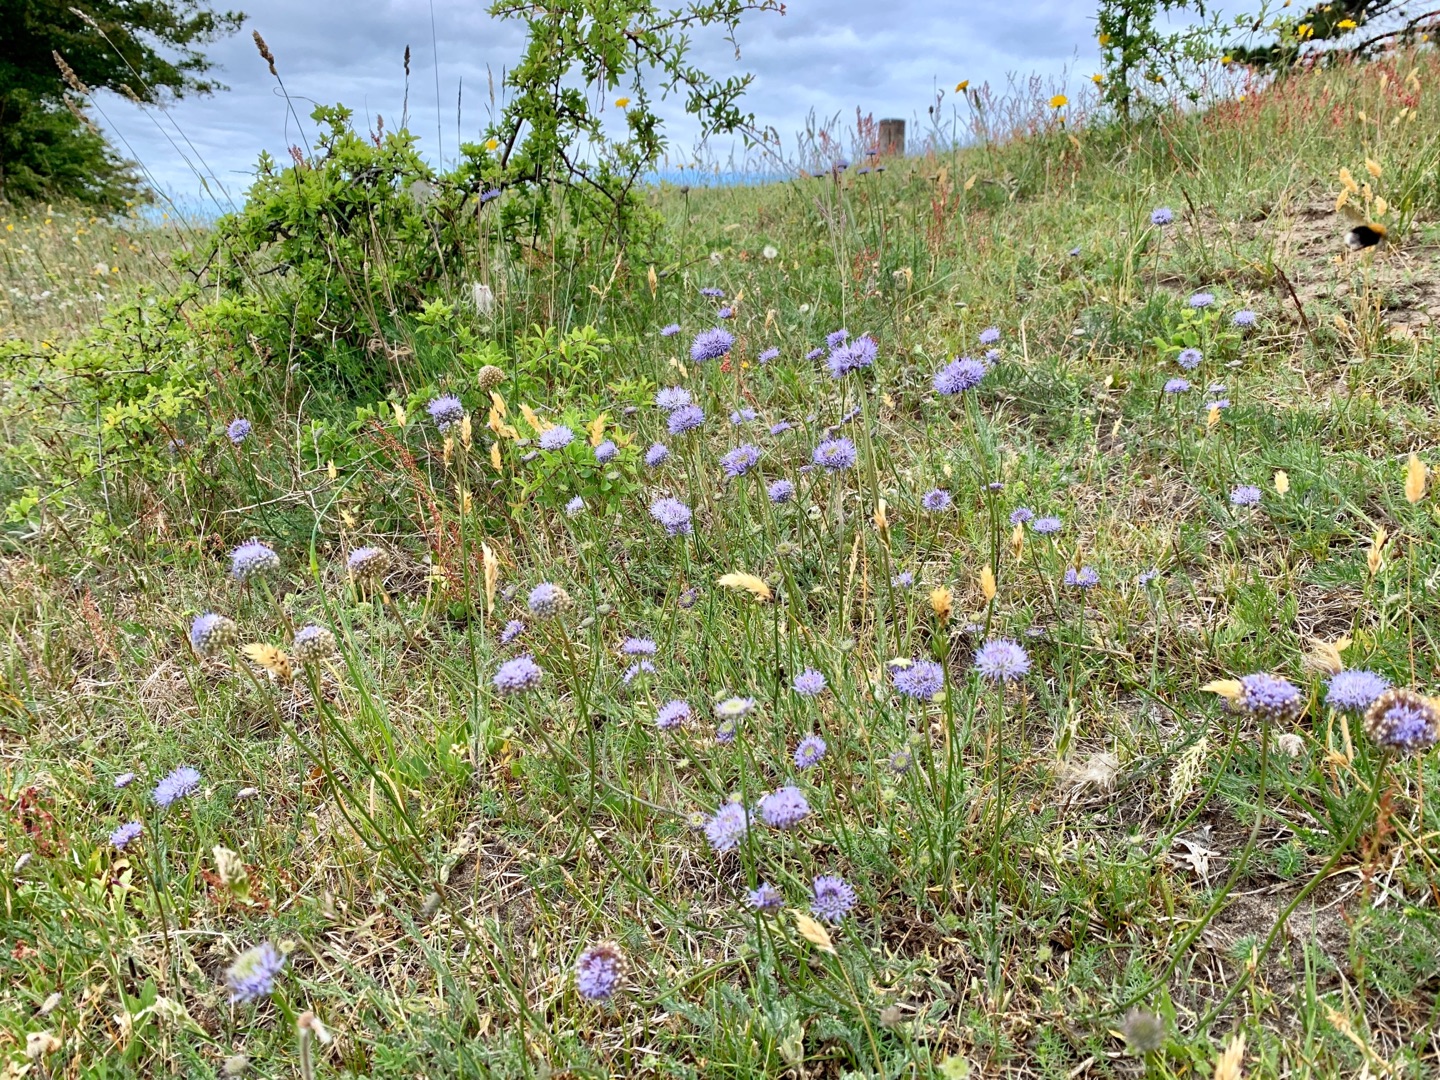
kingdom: Plantae
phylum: Tracheophyta
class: Magnoliopsida
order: Asterales
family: Campanulaceae
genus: Jasione
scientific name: Jasione montana
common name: Blåmunke
